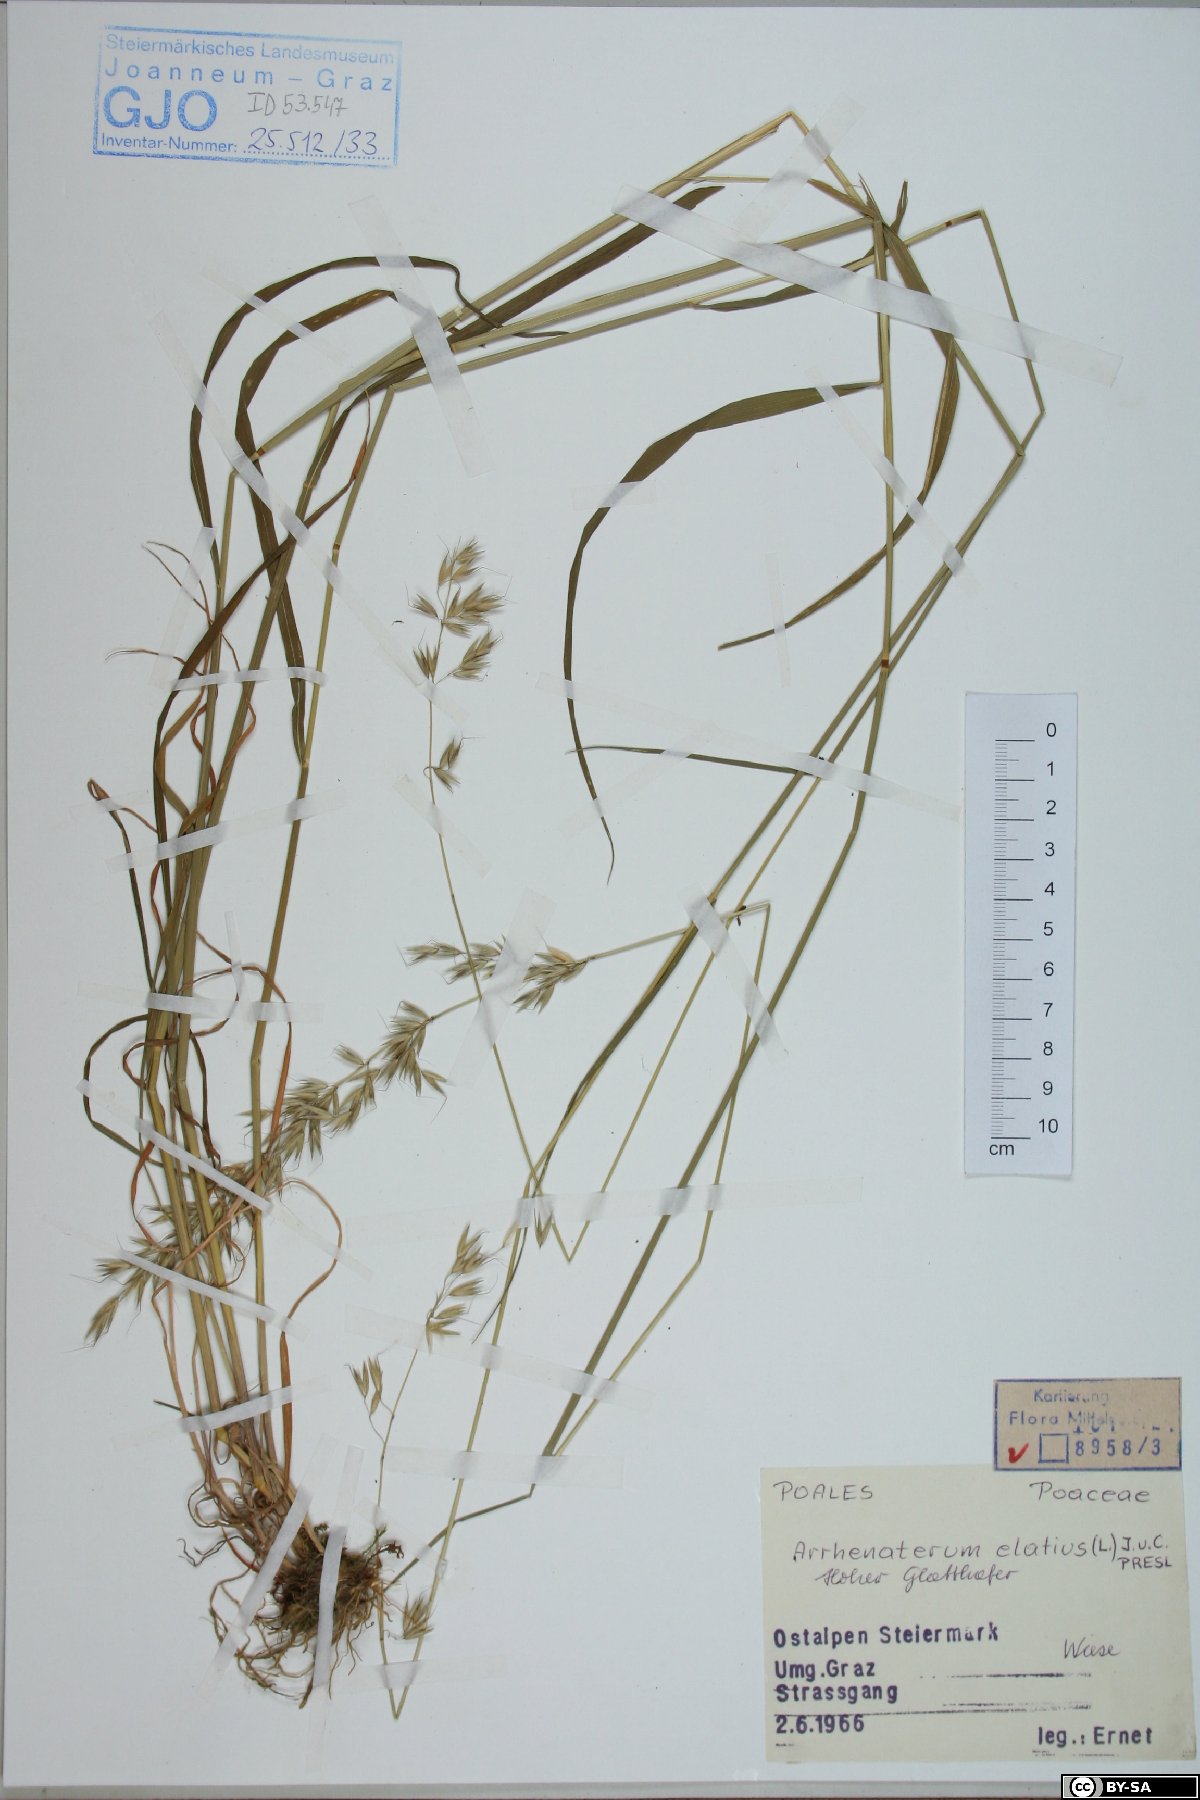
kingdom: Plantae
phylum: Tracheophyta
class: Liliopsida
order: Poales
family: Poaceae
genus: Arrhenatherum
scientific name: Arrhenatherum elatius
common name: Tall oatgrass
